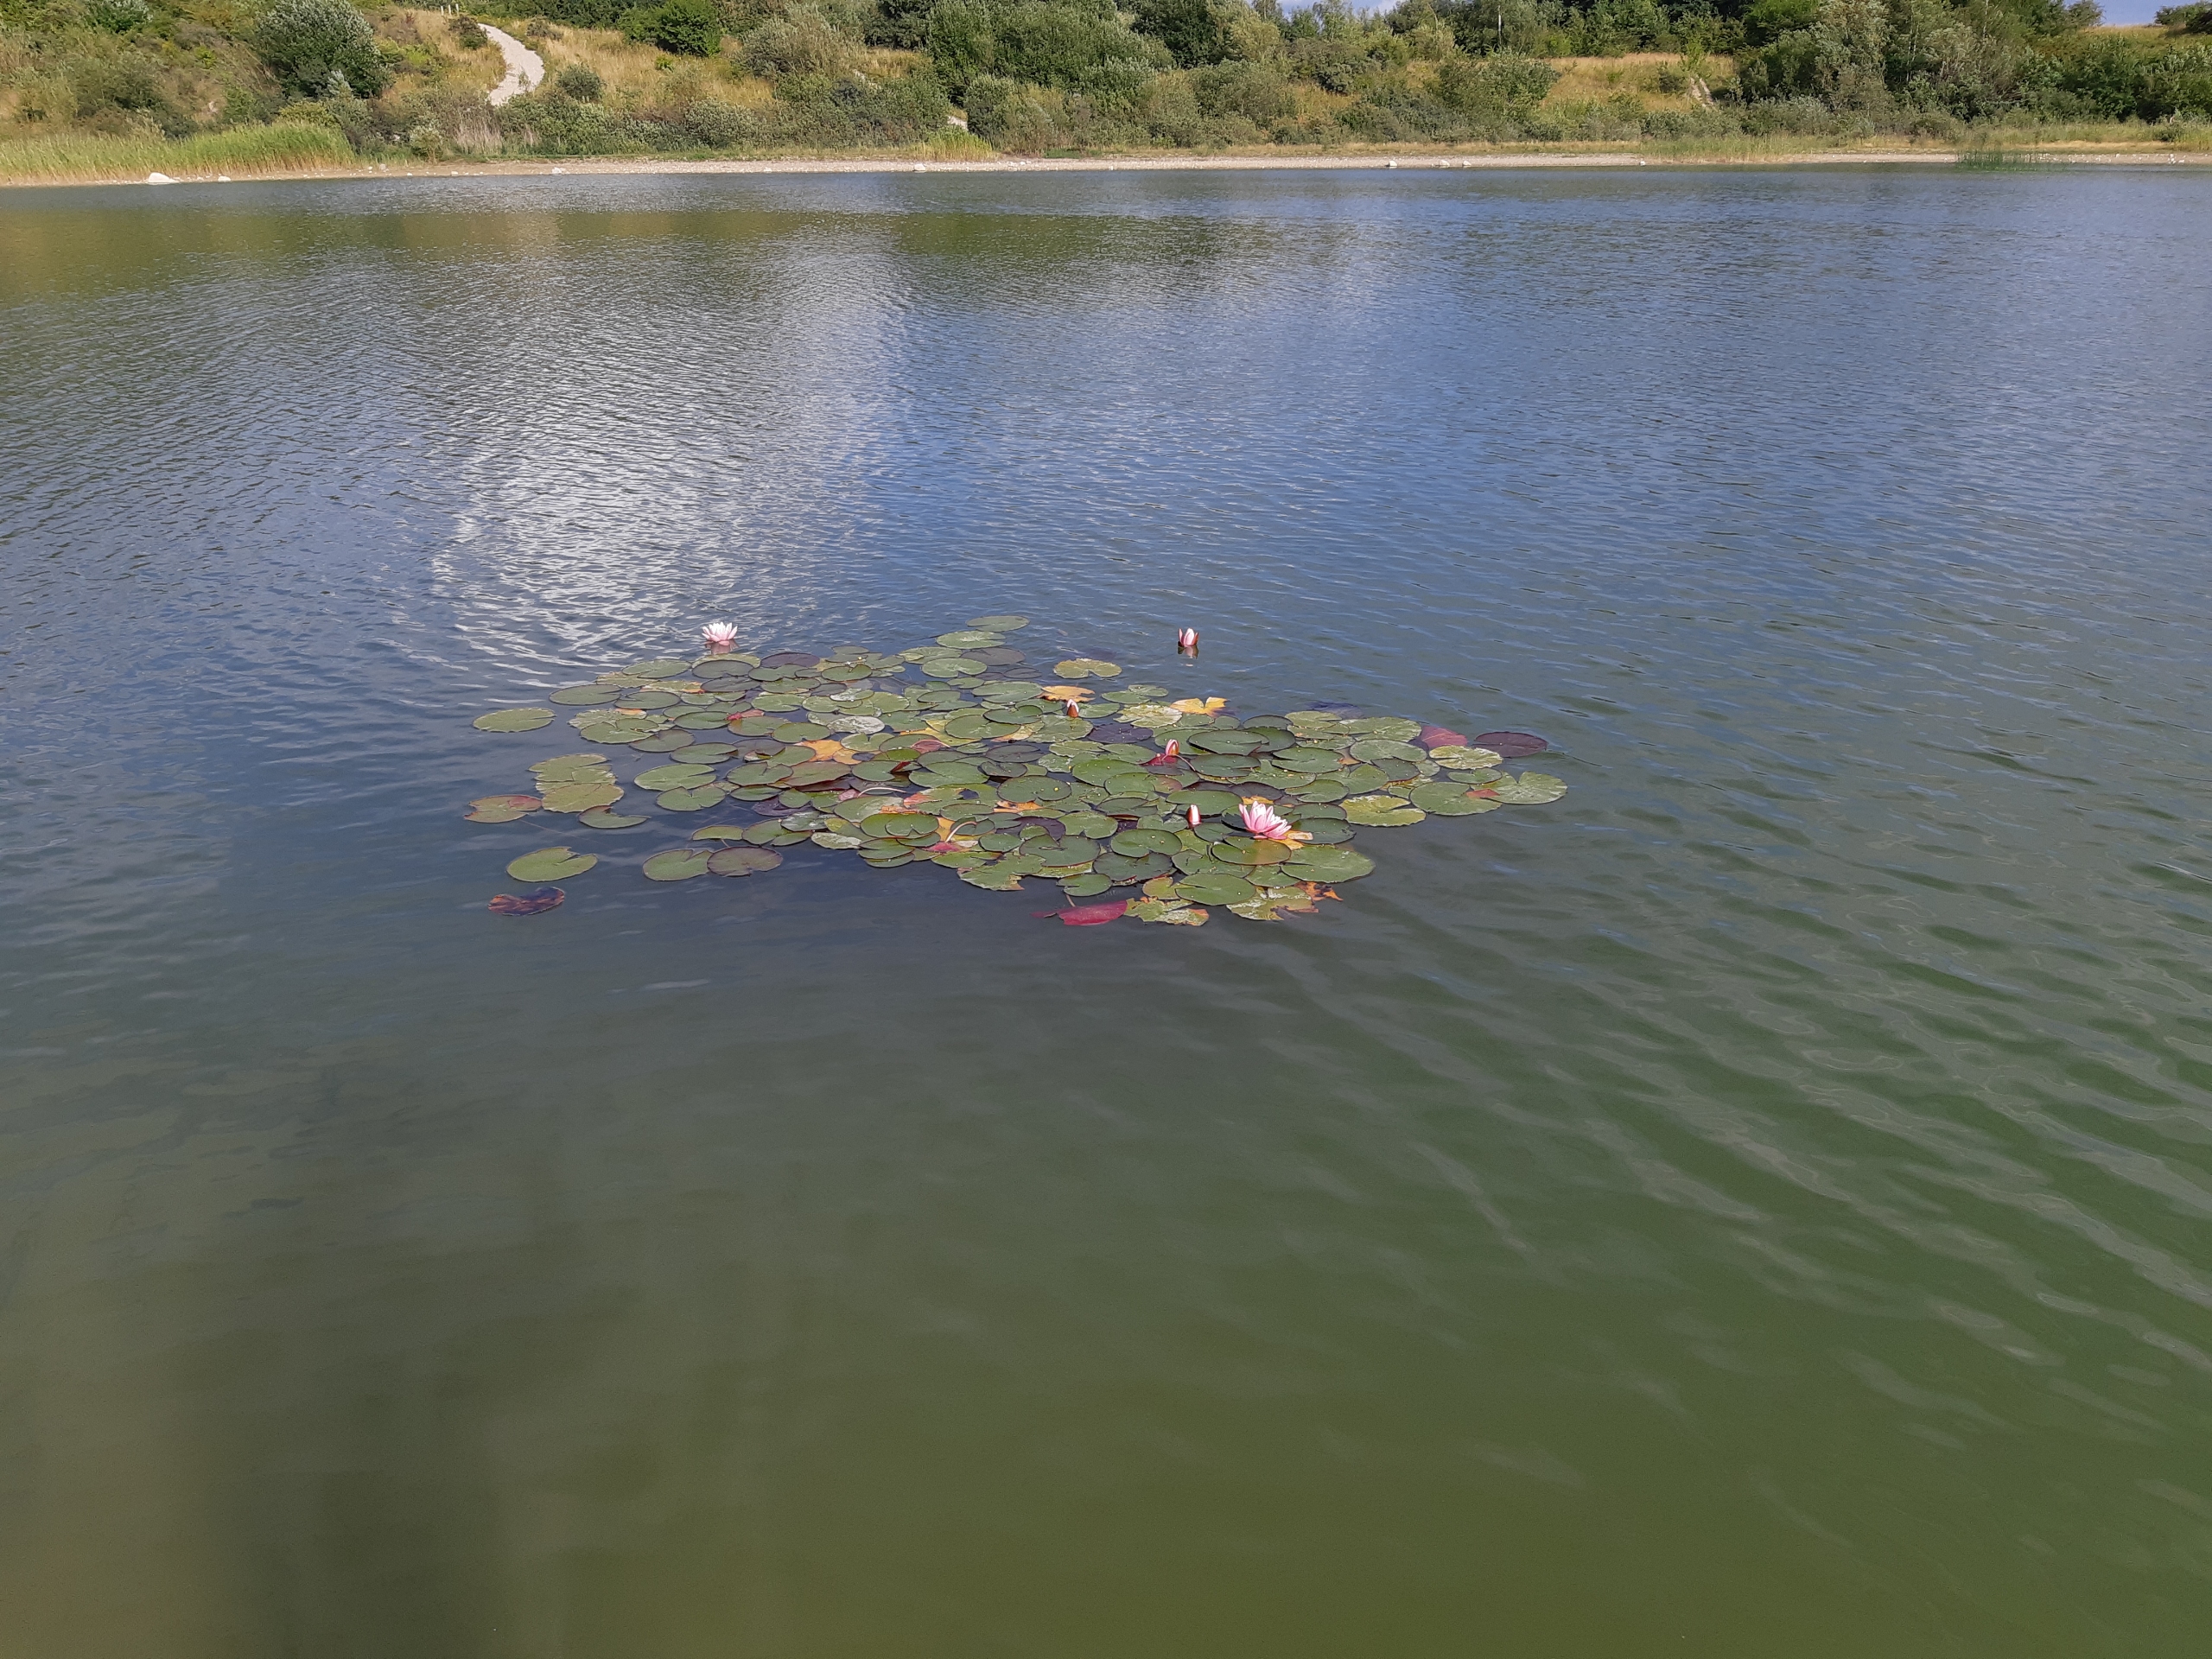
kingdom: Plantae
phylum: Tracheophyta
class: Magnoliopsida
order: Nymphaeales
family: Nymphaeaceae
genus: Nymphaea
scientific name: Nymphaea alba
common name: Hvid åkande
